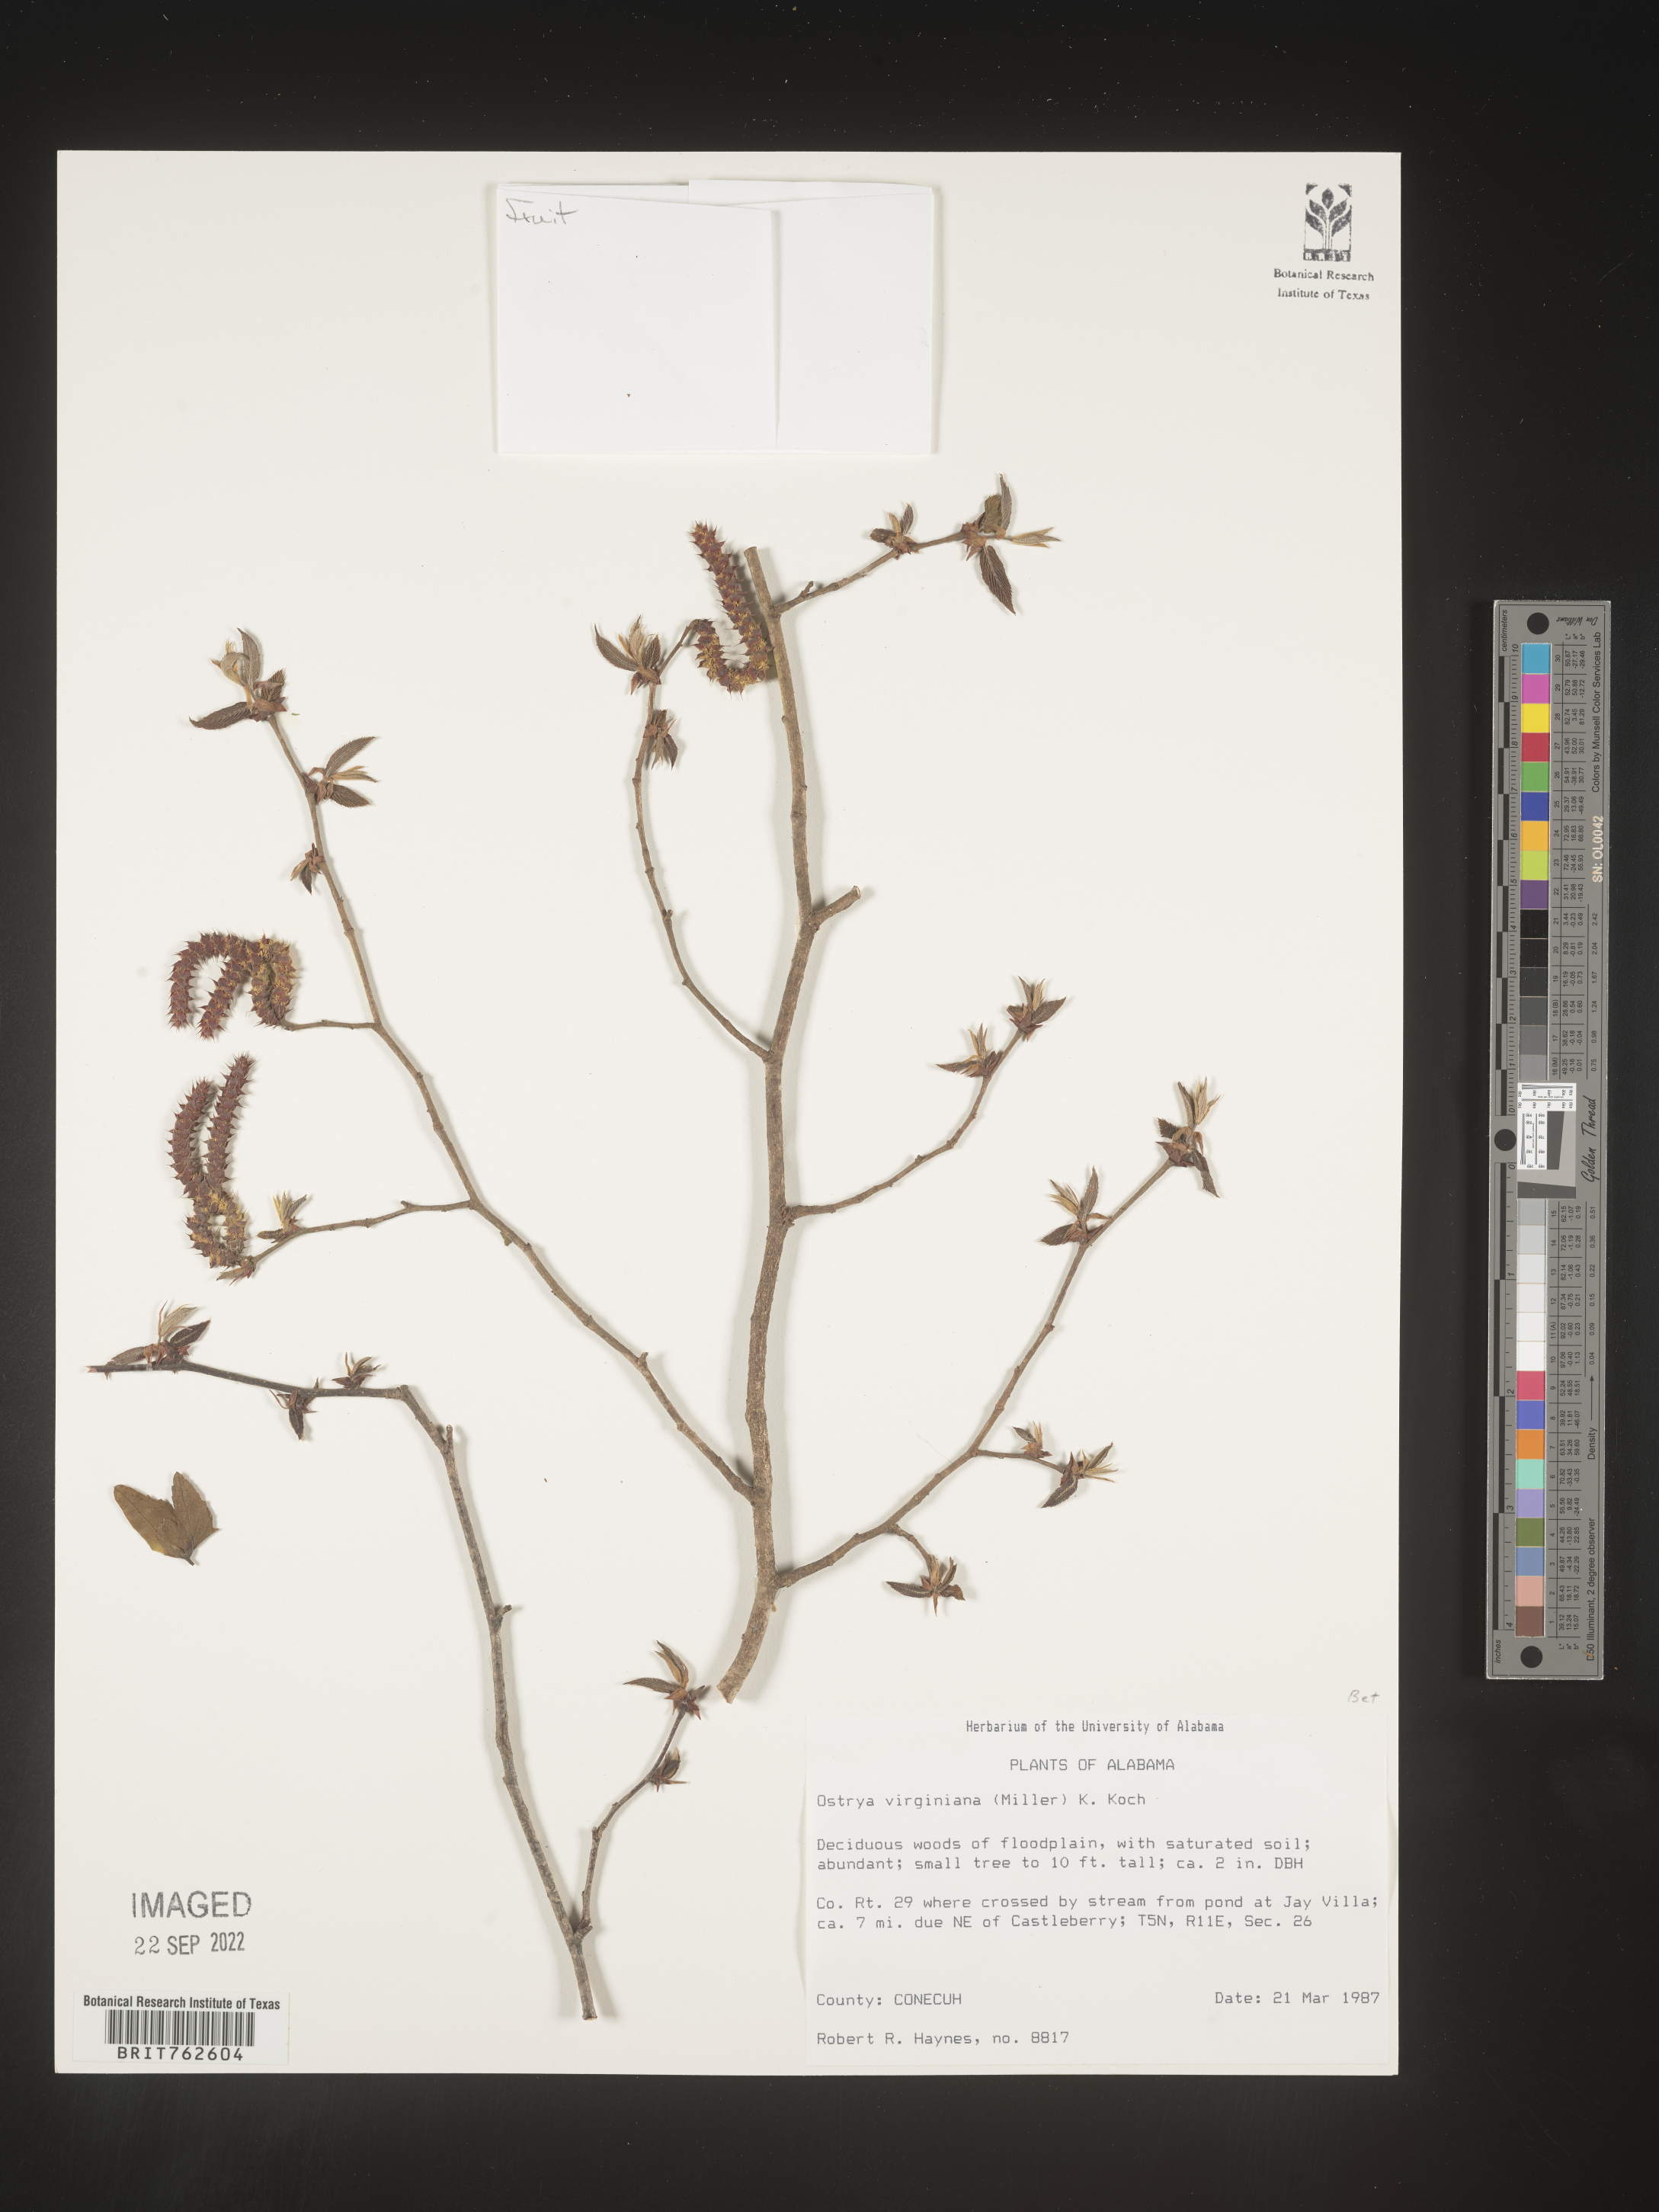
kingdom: Plantae
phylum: Tracheophyta
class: Magnoliopsida
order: Fagales
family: Betulaceae
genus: Ostrya
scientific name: Ostrya virginiana
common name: Ironwood
